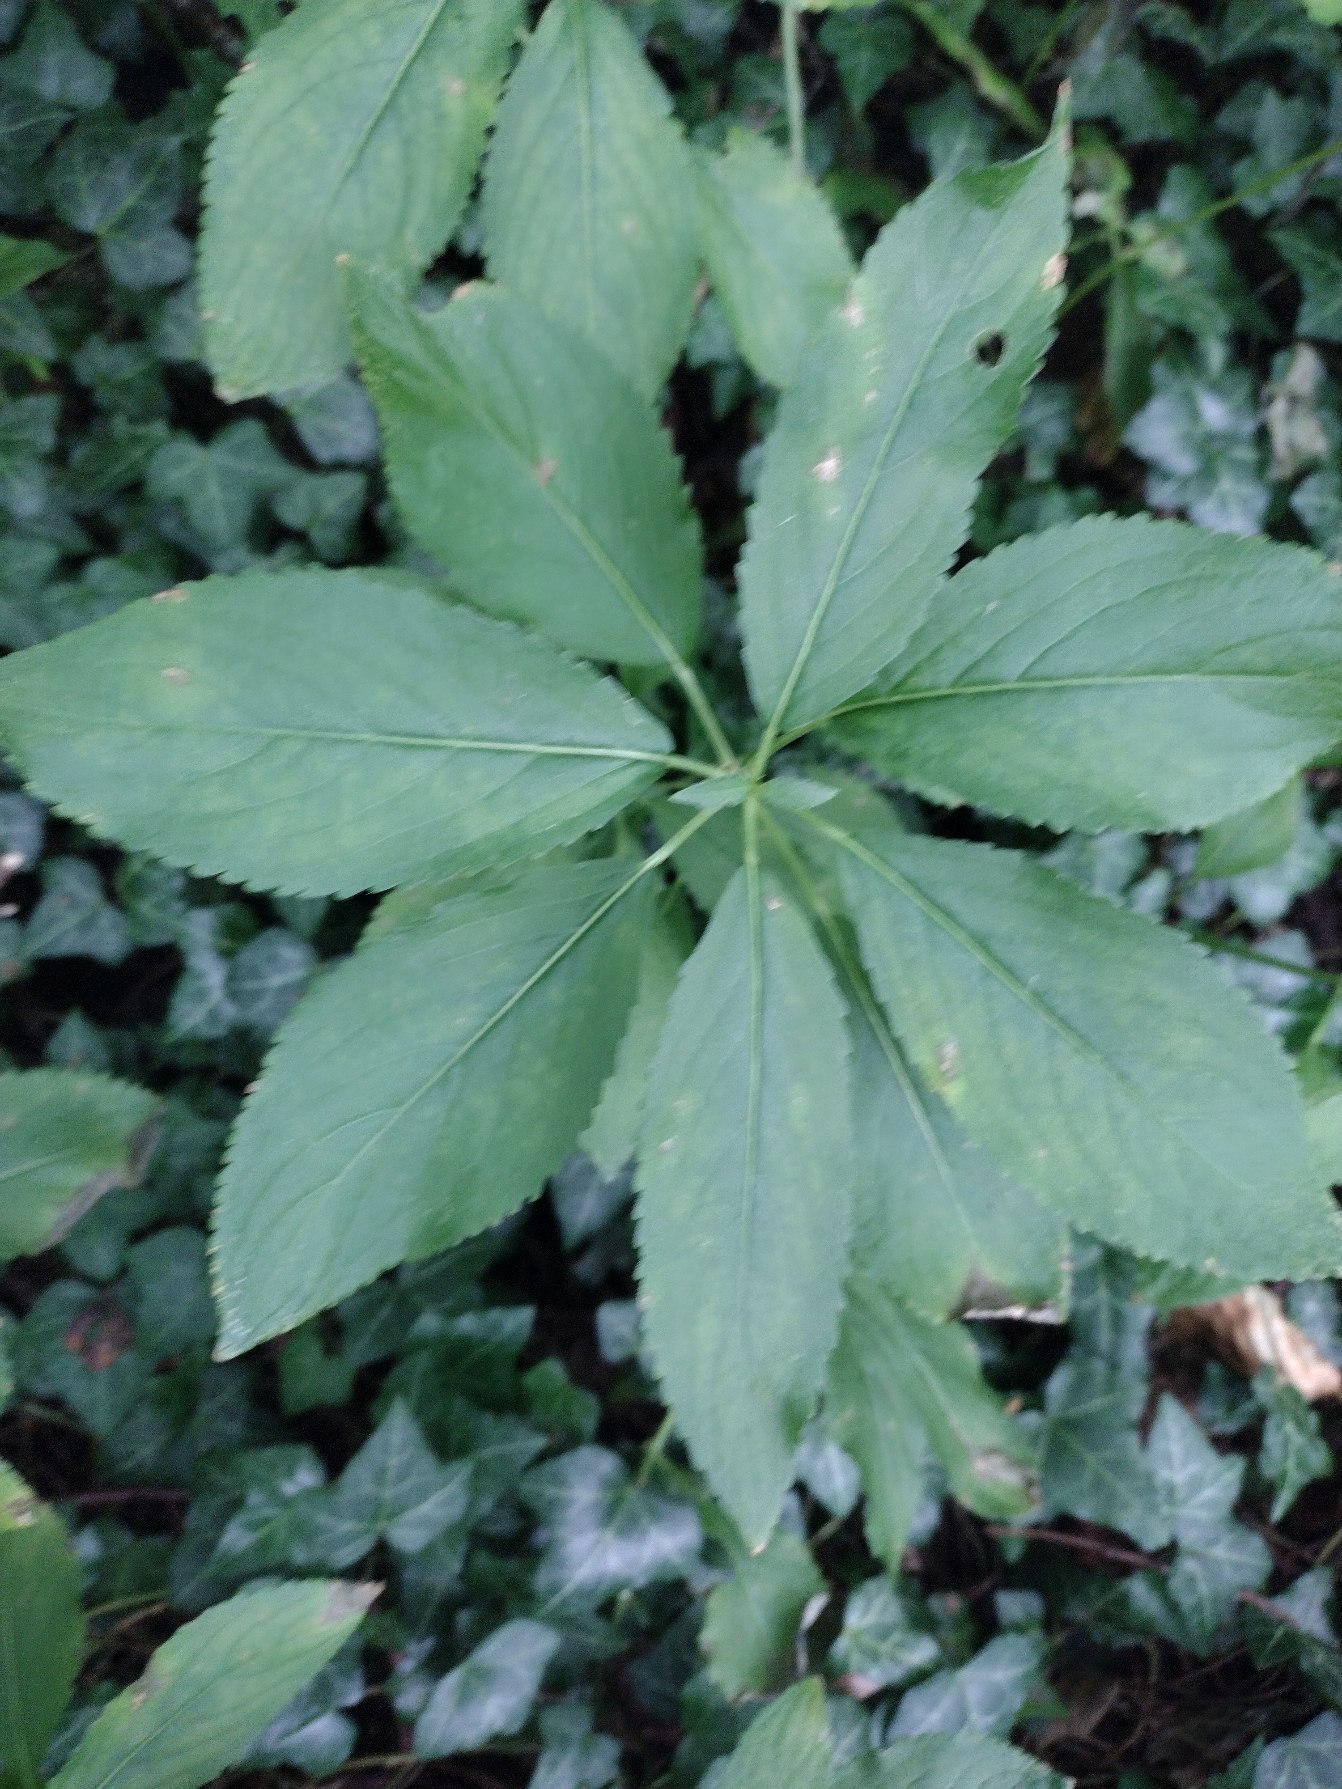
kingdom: Plantae
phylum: Tracheophyta
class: Magnoliopsida
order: Malpighiales
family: Euphorbiaceae
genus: Mercurialis
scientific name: Mercurialis perennis
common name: Almindelig bingelurt
